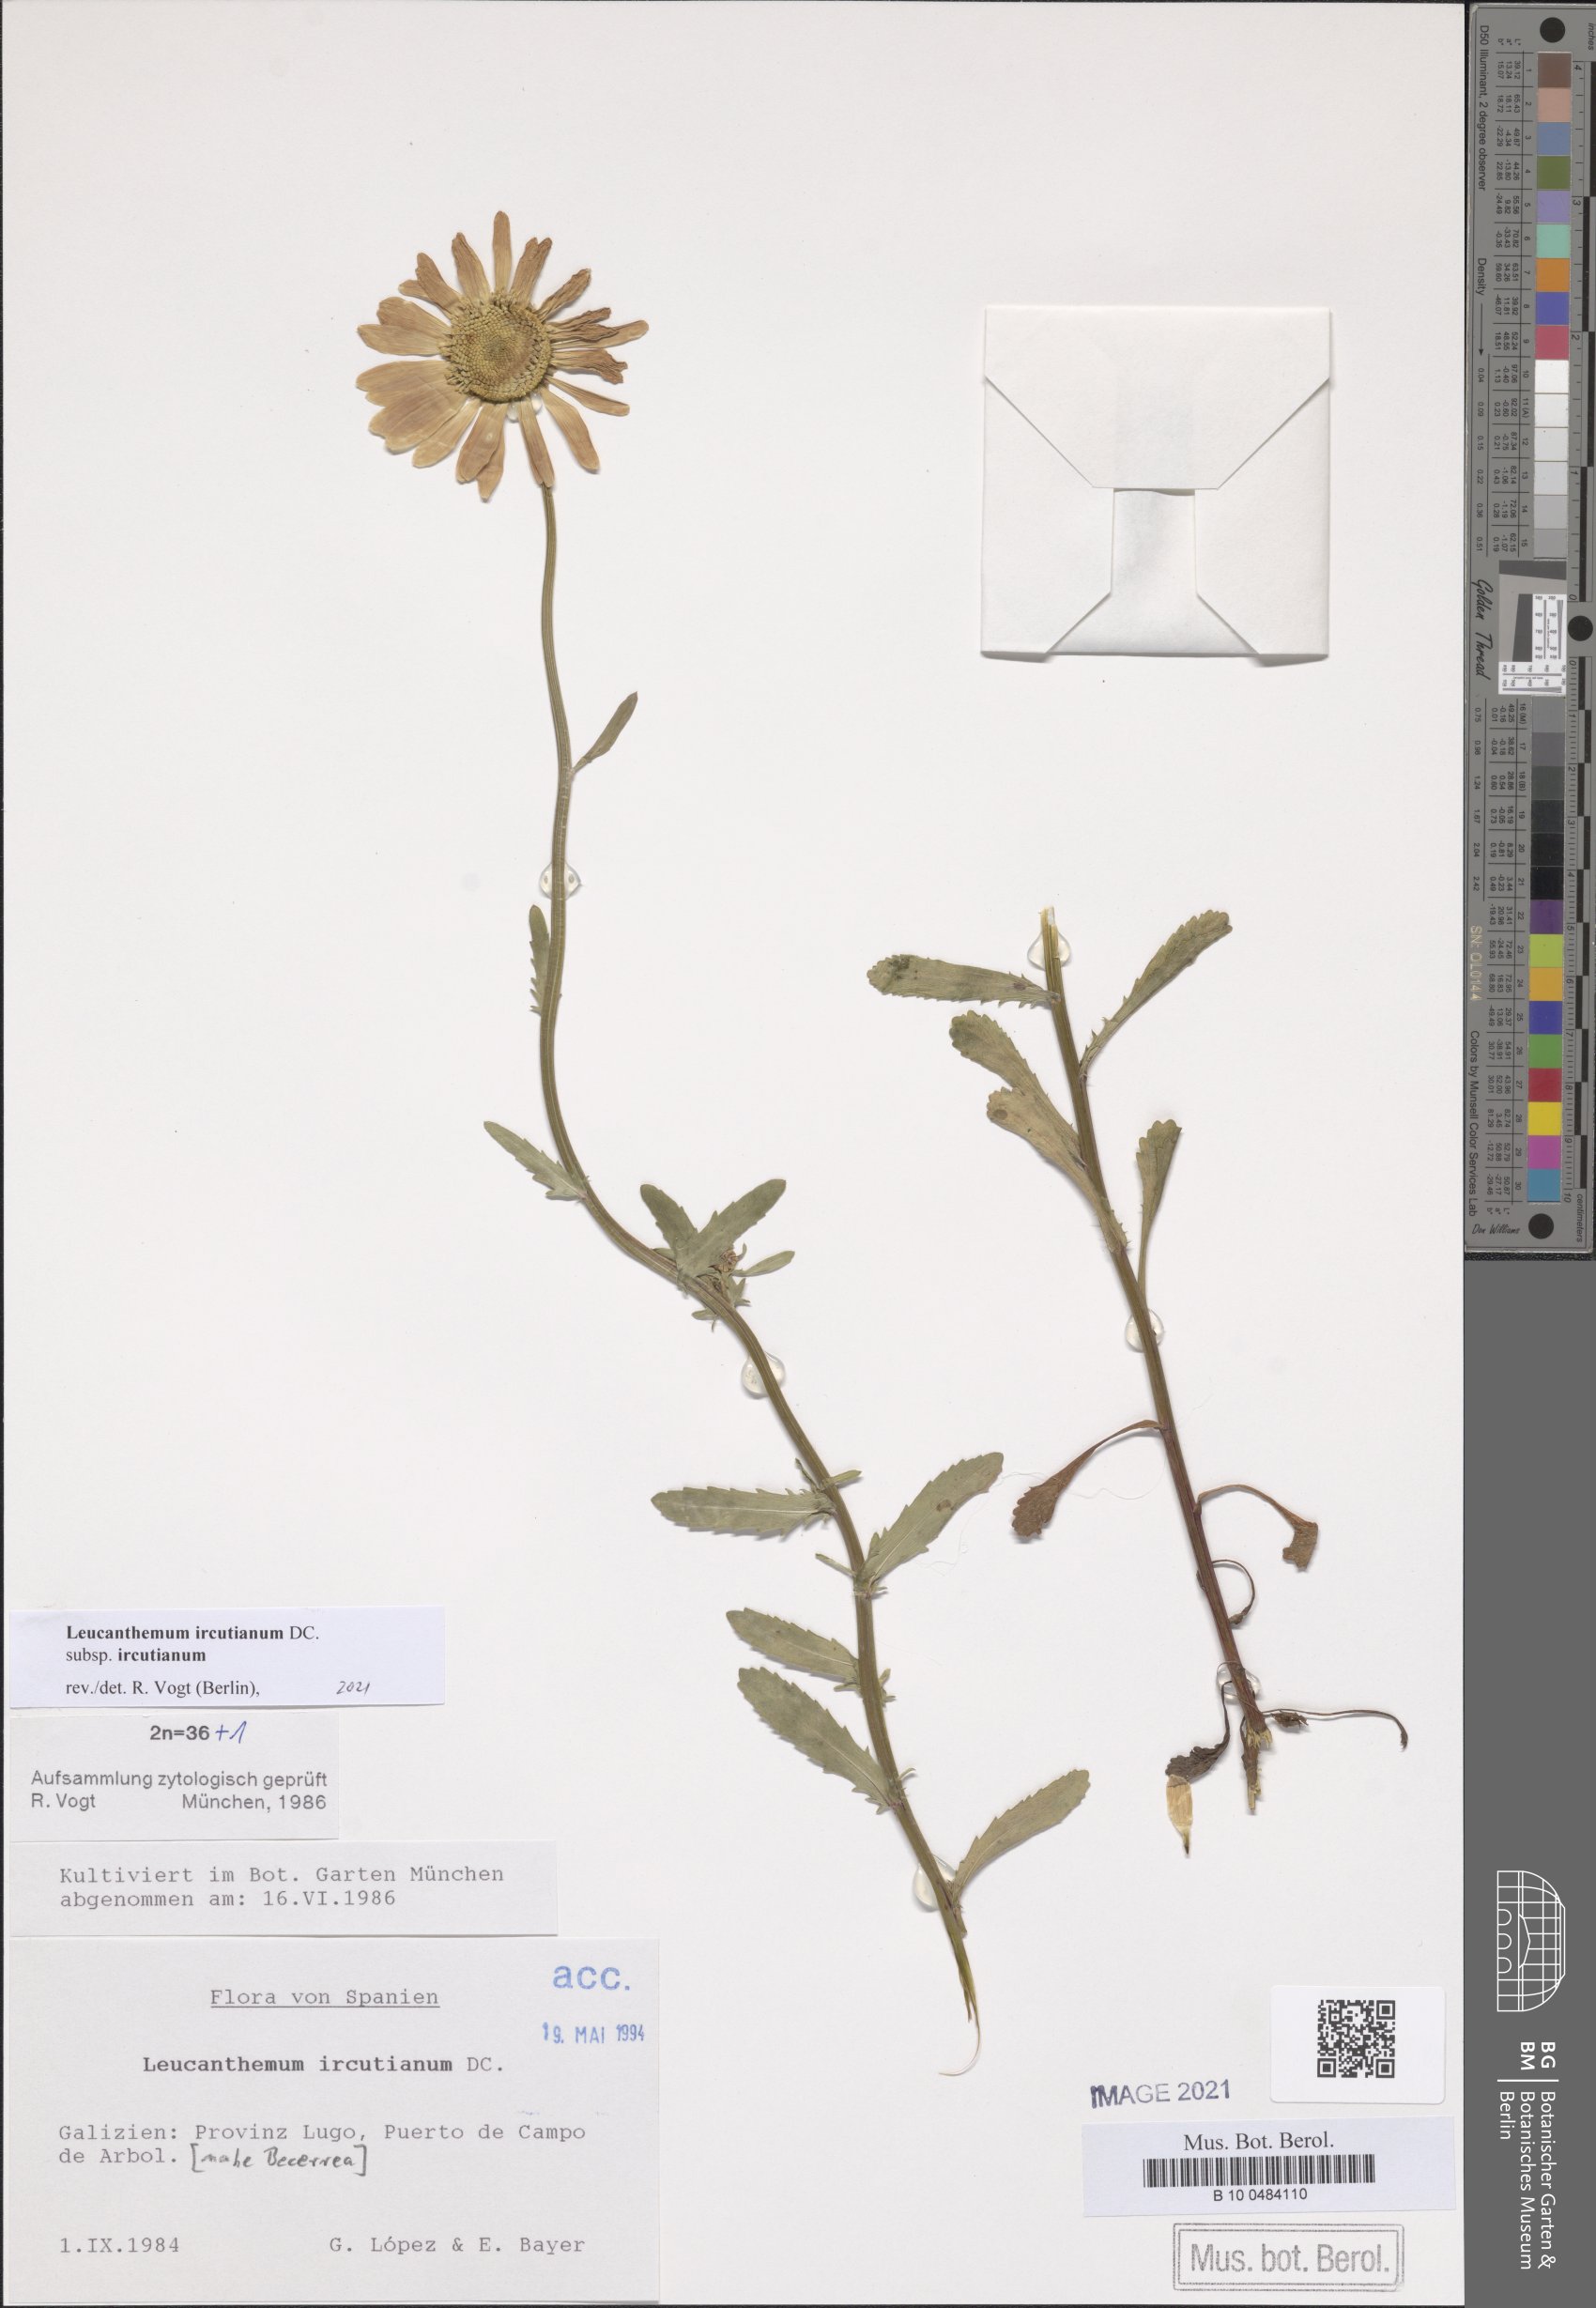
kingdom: Plantae
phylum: Tracheophyta
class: Magnoliopsida
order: Asterales
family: Asteraceae
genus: Leucanthemum
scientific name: Leucanthemum ircutianum
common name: Daisy
